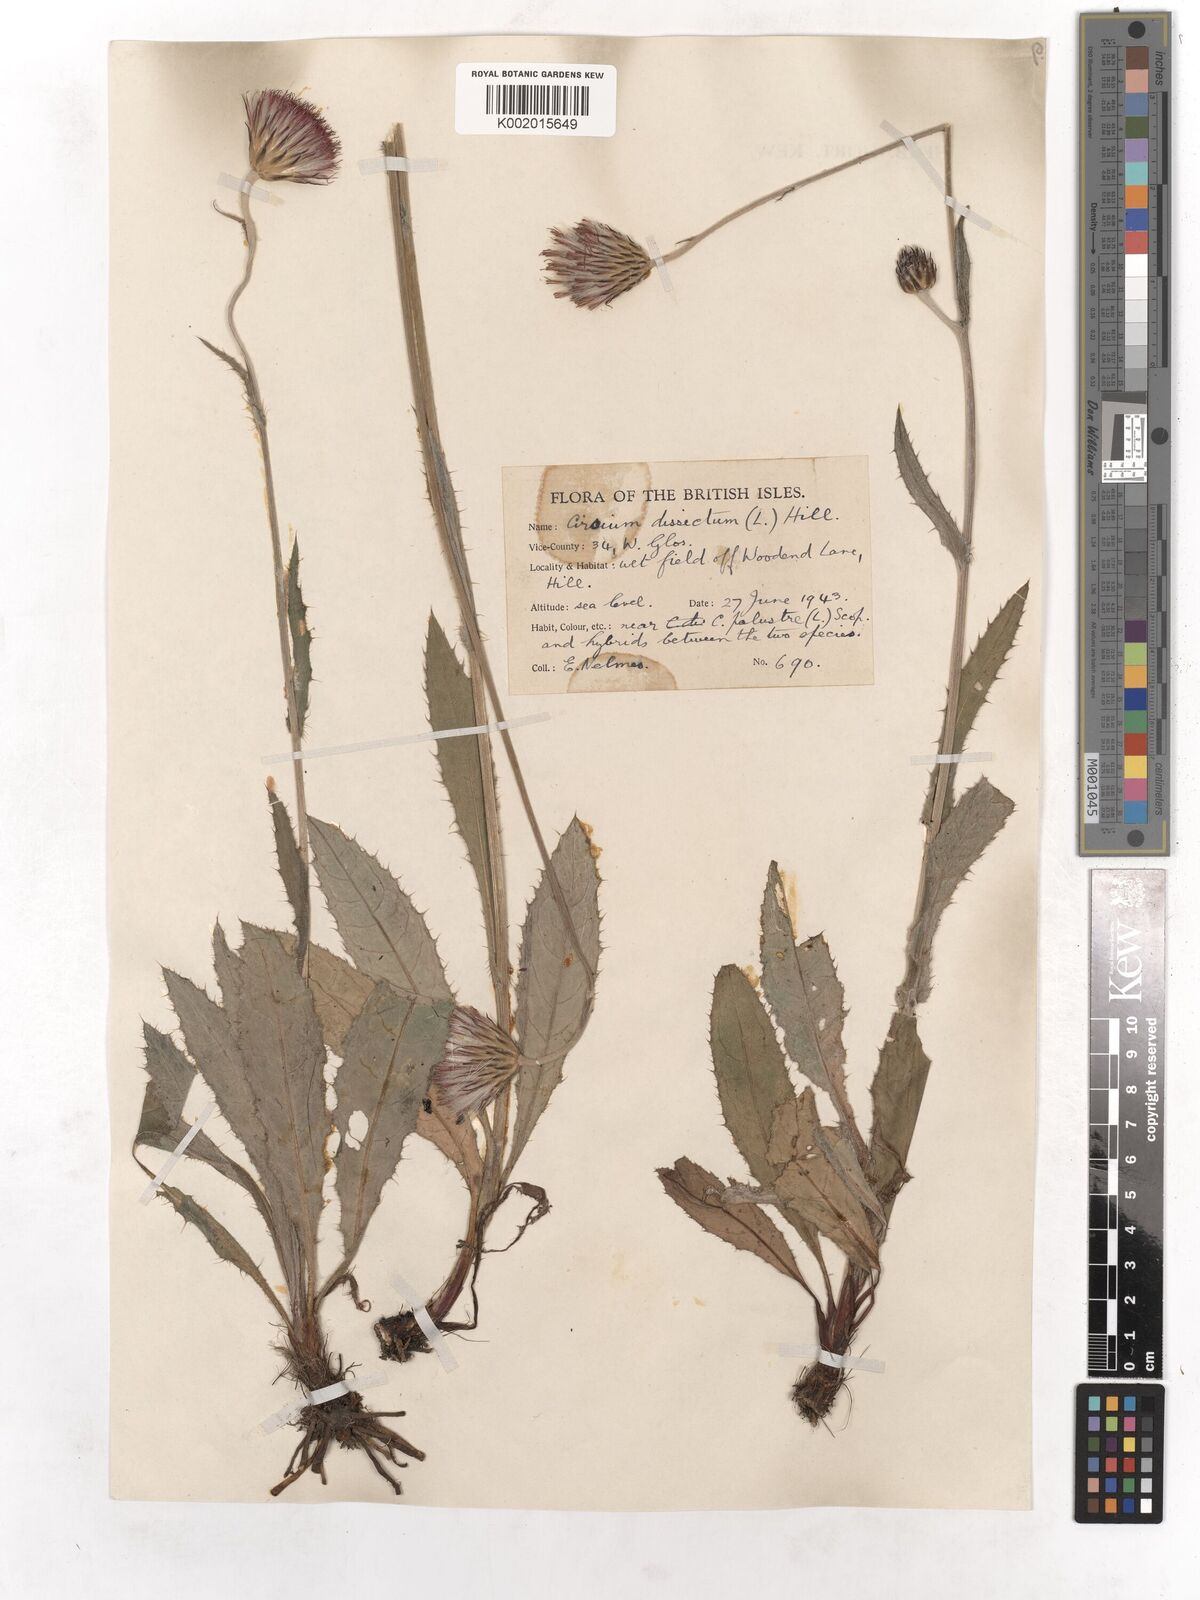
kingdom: Plantae
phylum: Tracheophyta
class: Magnoliopsida
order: Asterales
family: Asteraceae
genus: Cirsium
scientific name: Cirsium dissectum
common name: Meadow thistle
